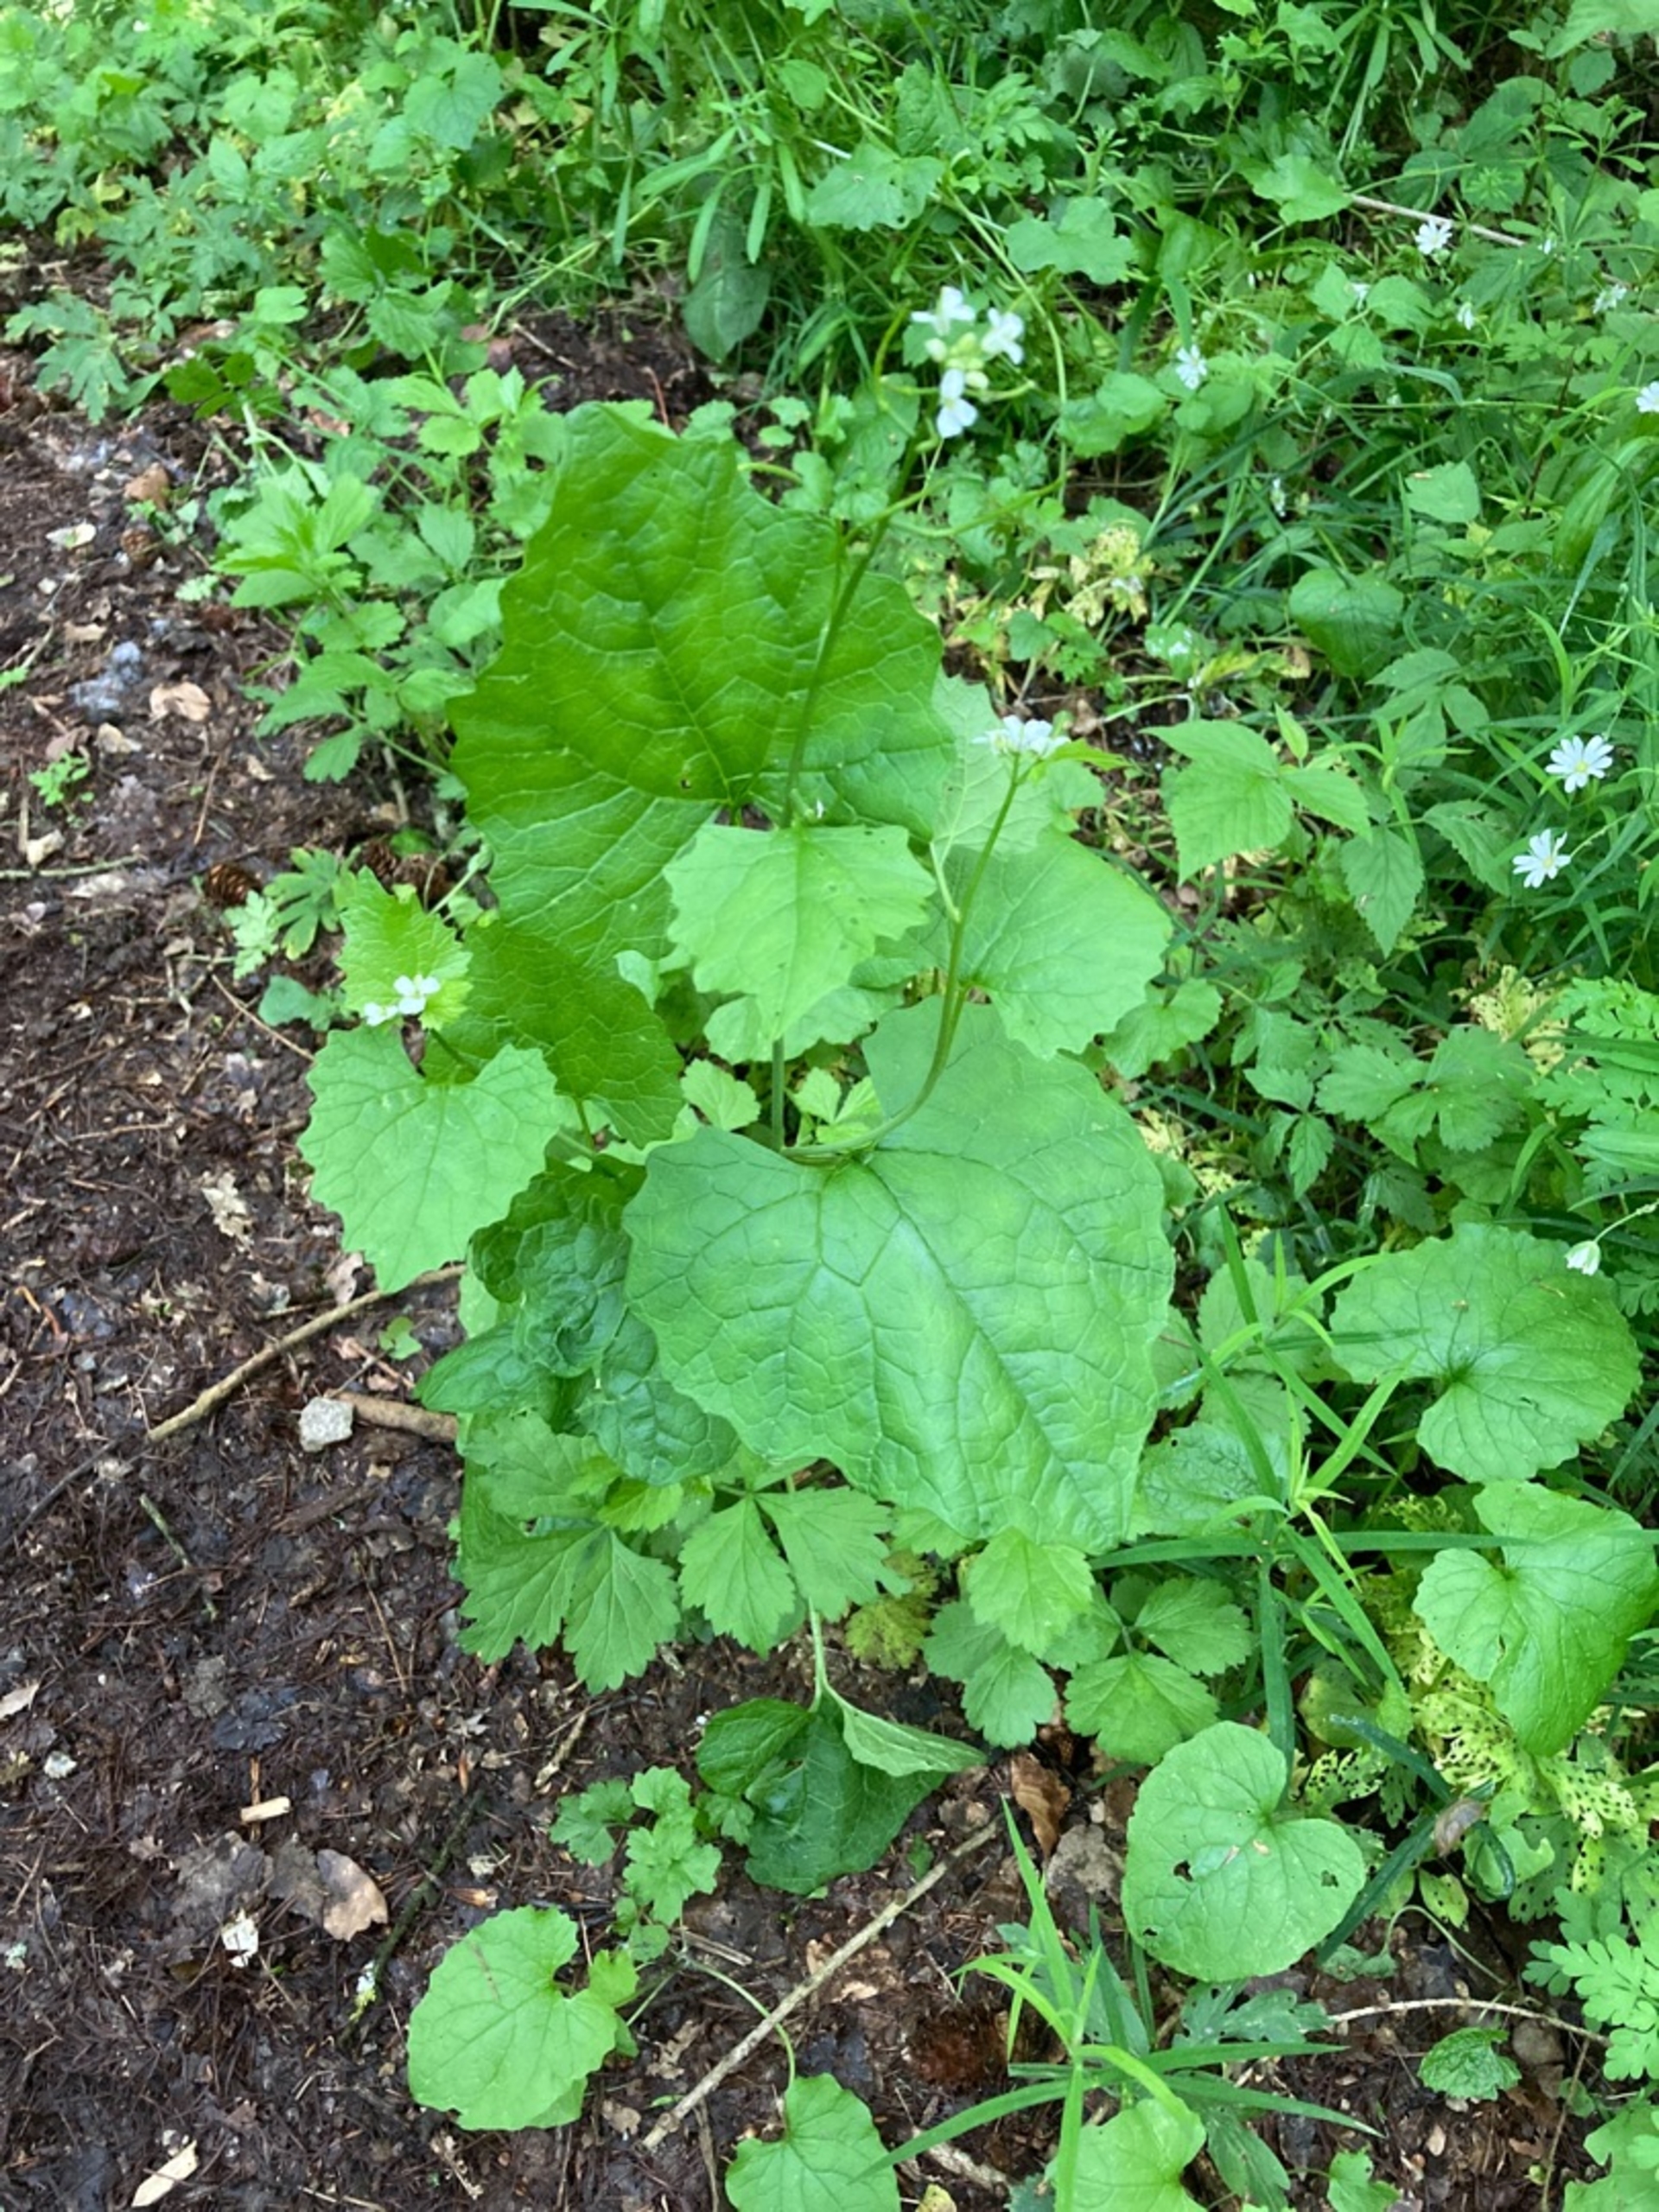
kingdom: Plantae
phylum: Tracheophyta
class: Magnoliopsida
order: Brassicales
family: Brassicaceae
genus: Alliaria
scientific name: Alliaria petiolata
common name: Løgkarse
